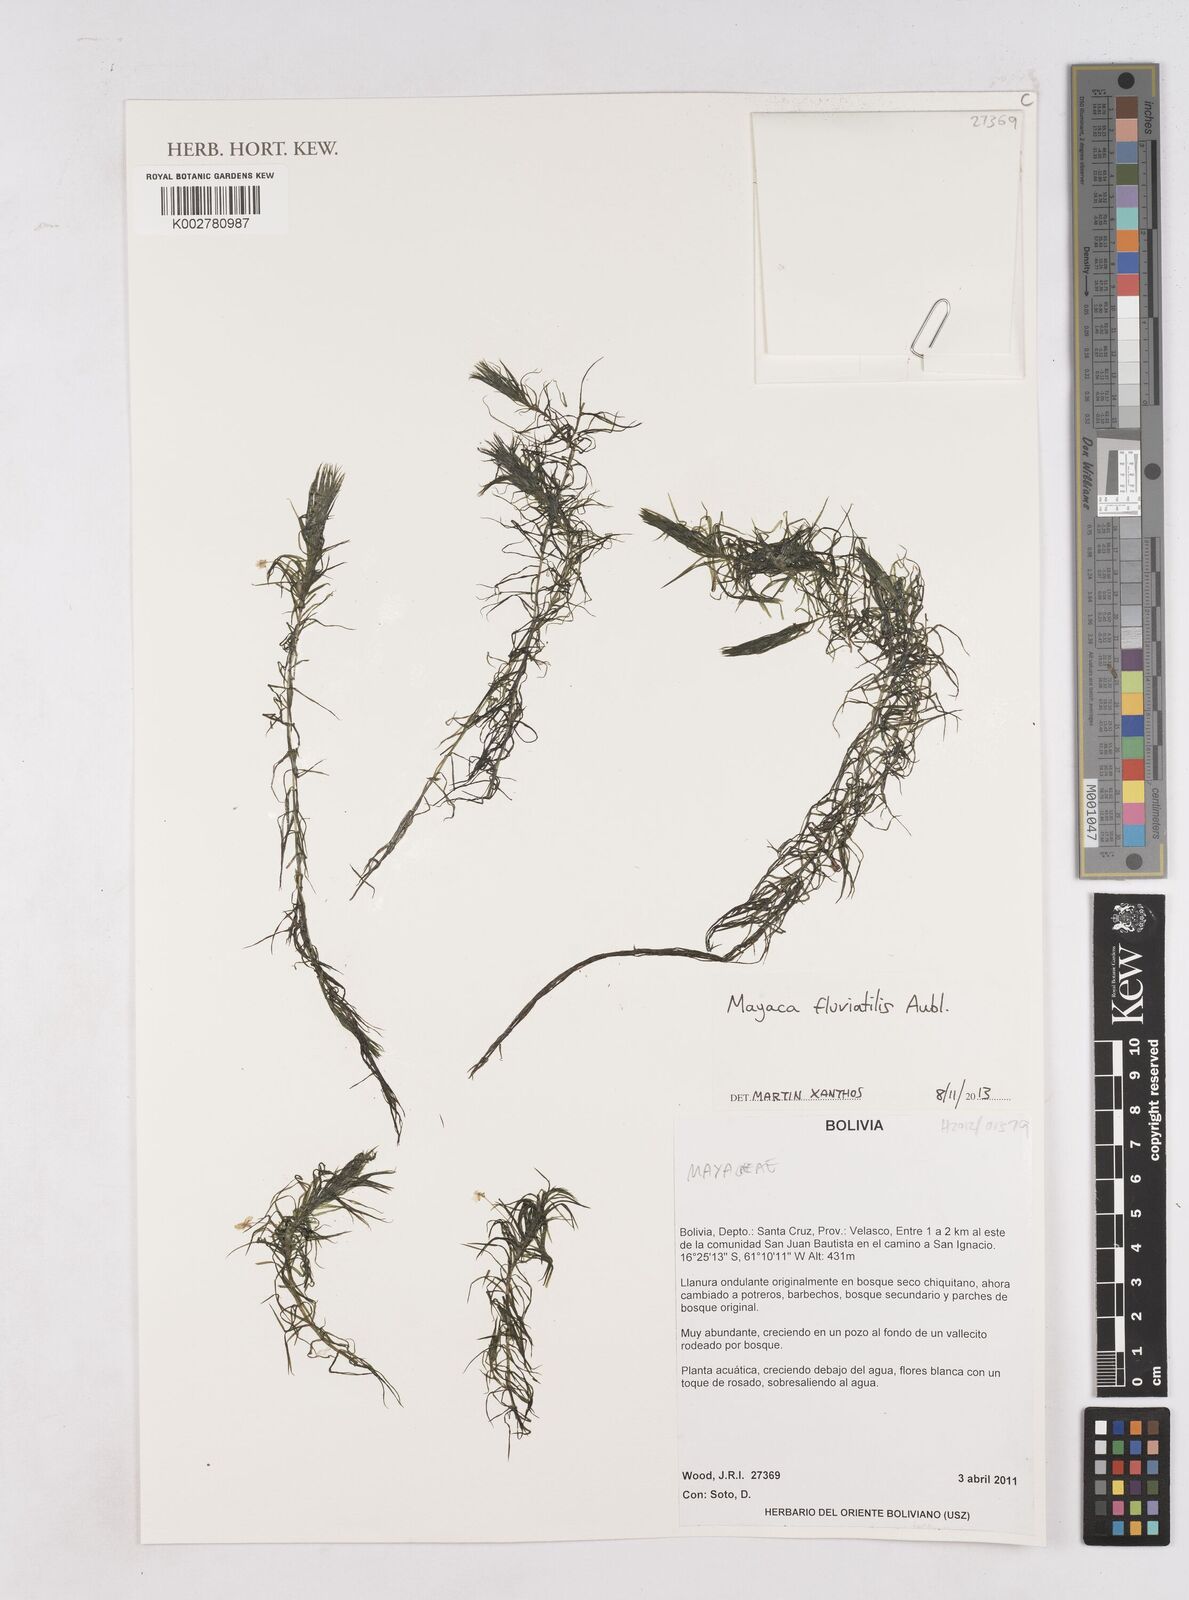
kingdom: Plantae
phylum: Tracheophyta
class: Liliopsida
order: Poales
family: Mayacaceae
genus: Mayaca
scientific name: Mayaca fluviatilis
